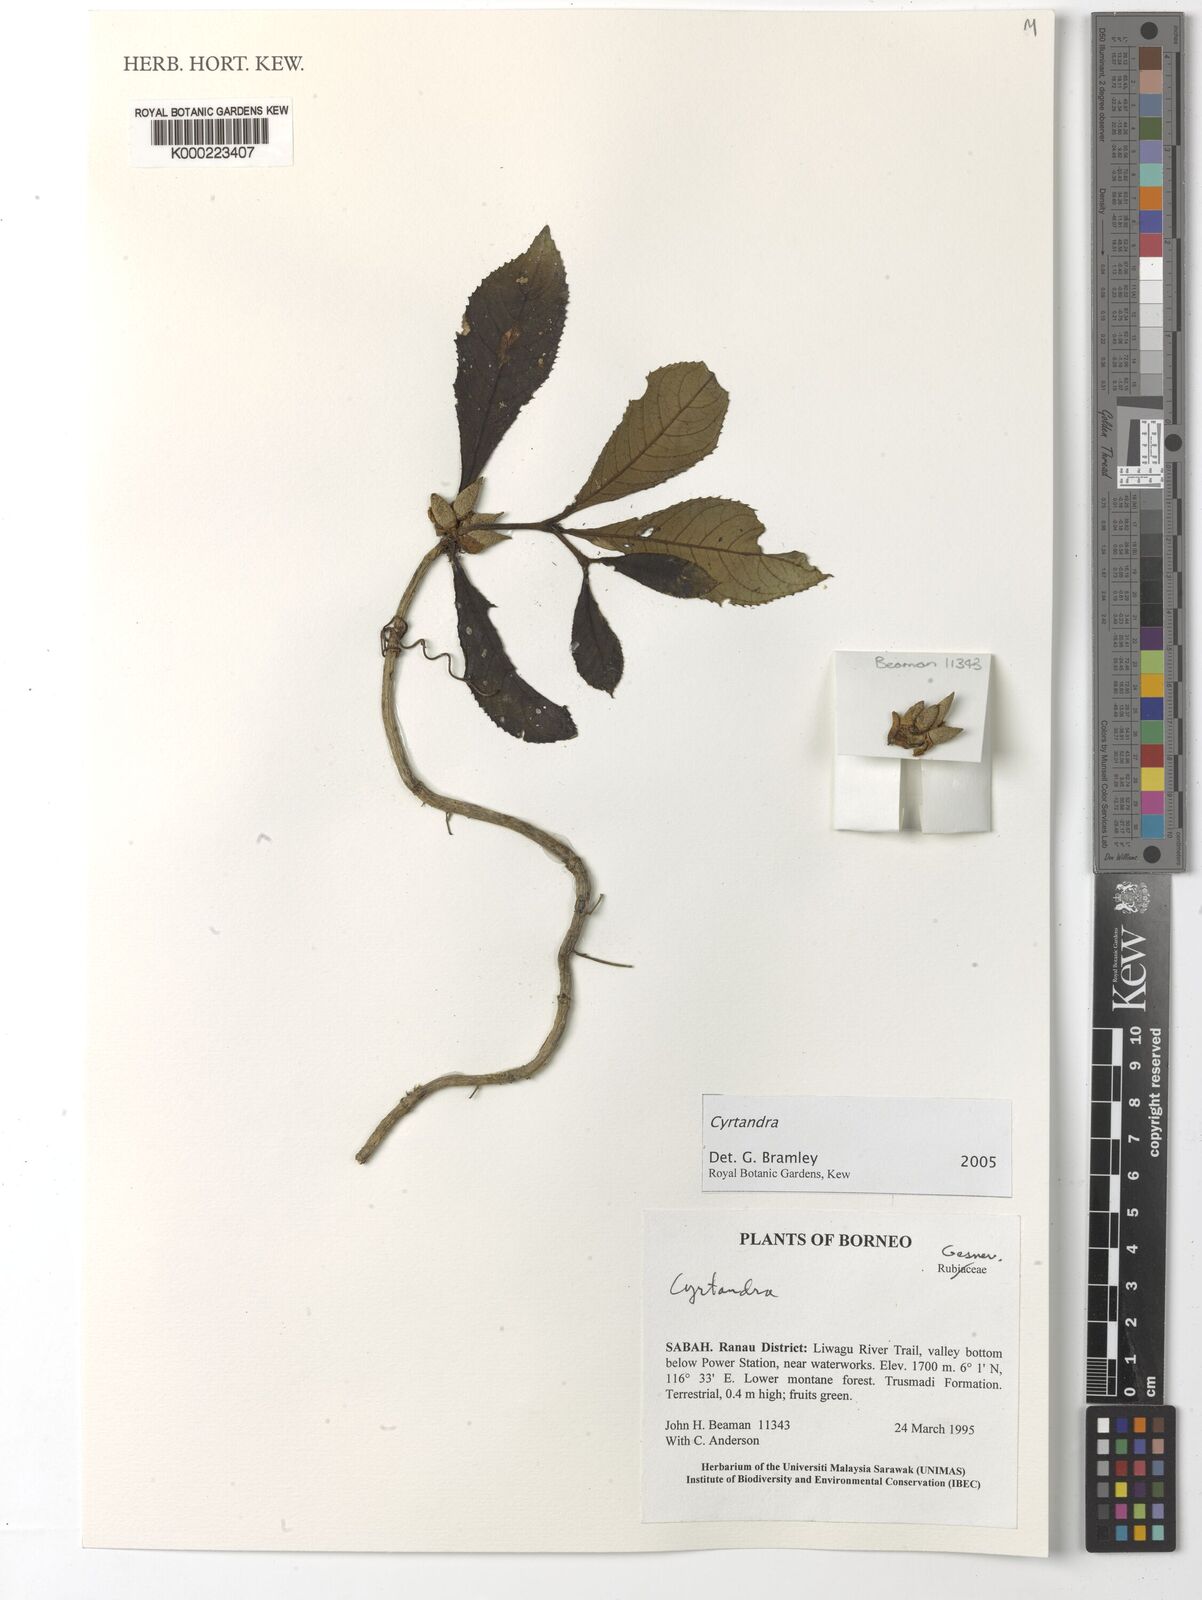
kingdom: Plantae
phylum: Tracheophyta
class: Magnoliopsida
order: Lamiales
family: Gesneriaceae
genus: Cyrtandra
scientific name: Cyrtandra
